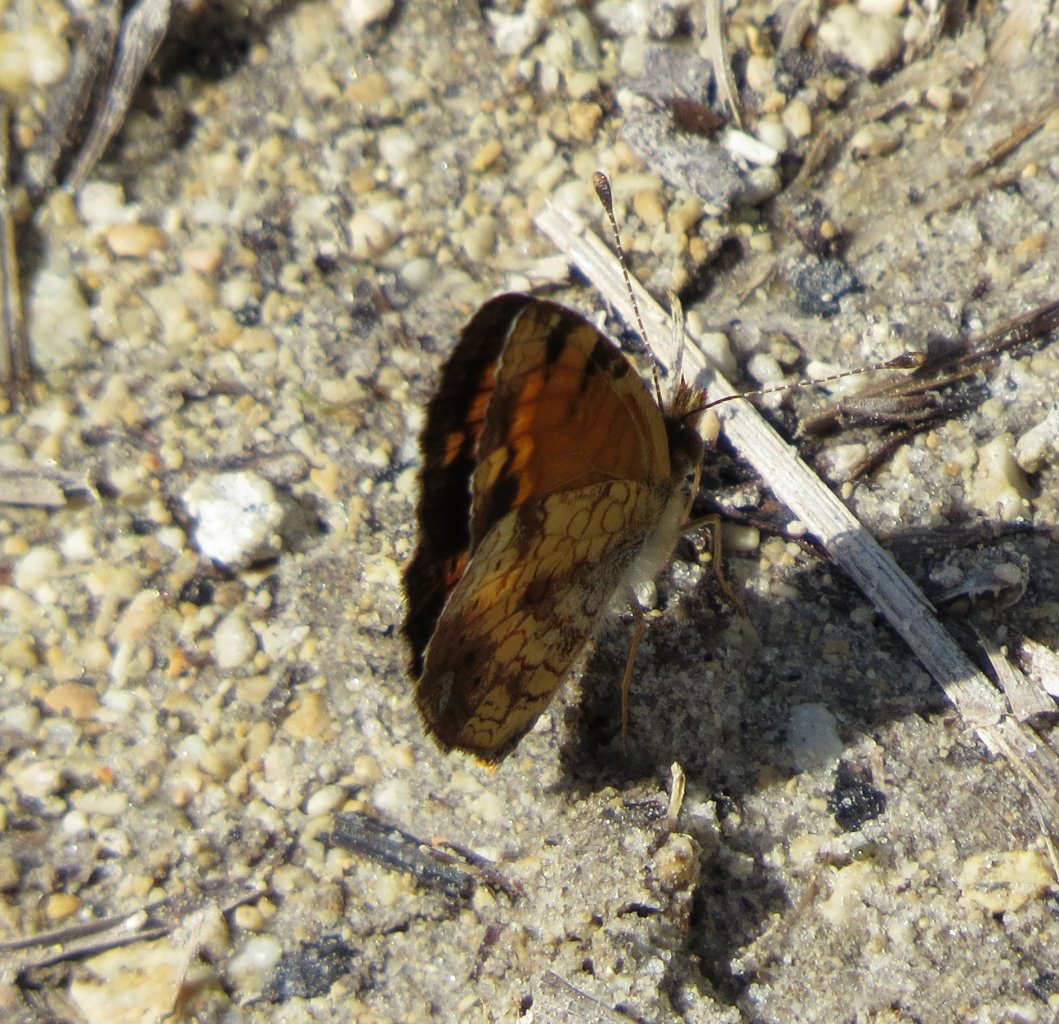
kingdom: Animalia
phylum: Arthropoda
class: Insecta
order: Lepidoptera
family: Nymphalidae
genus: Phyciodes
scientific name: Phyciodes tharos
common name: Pearl Crescent
